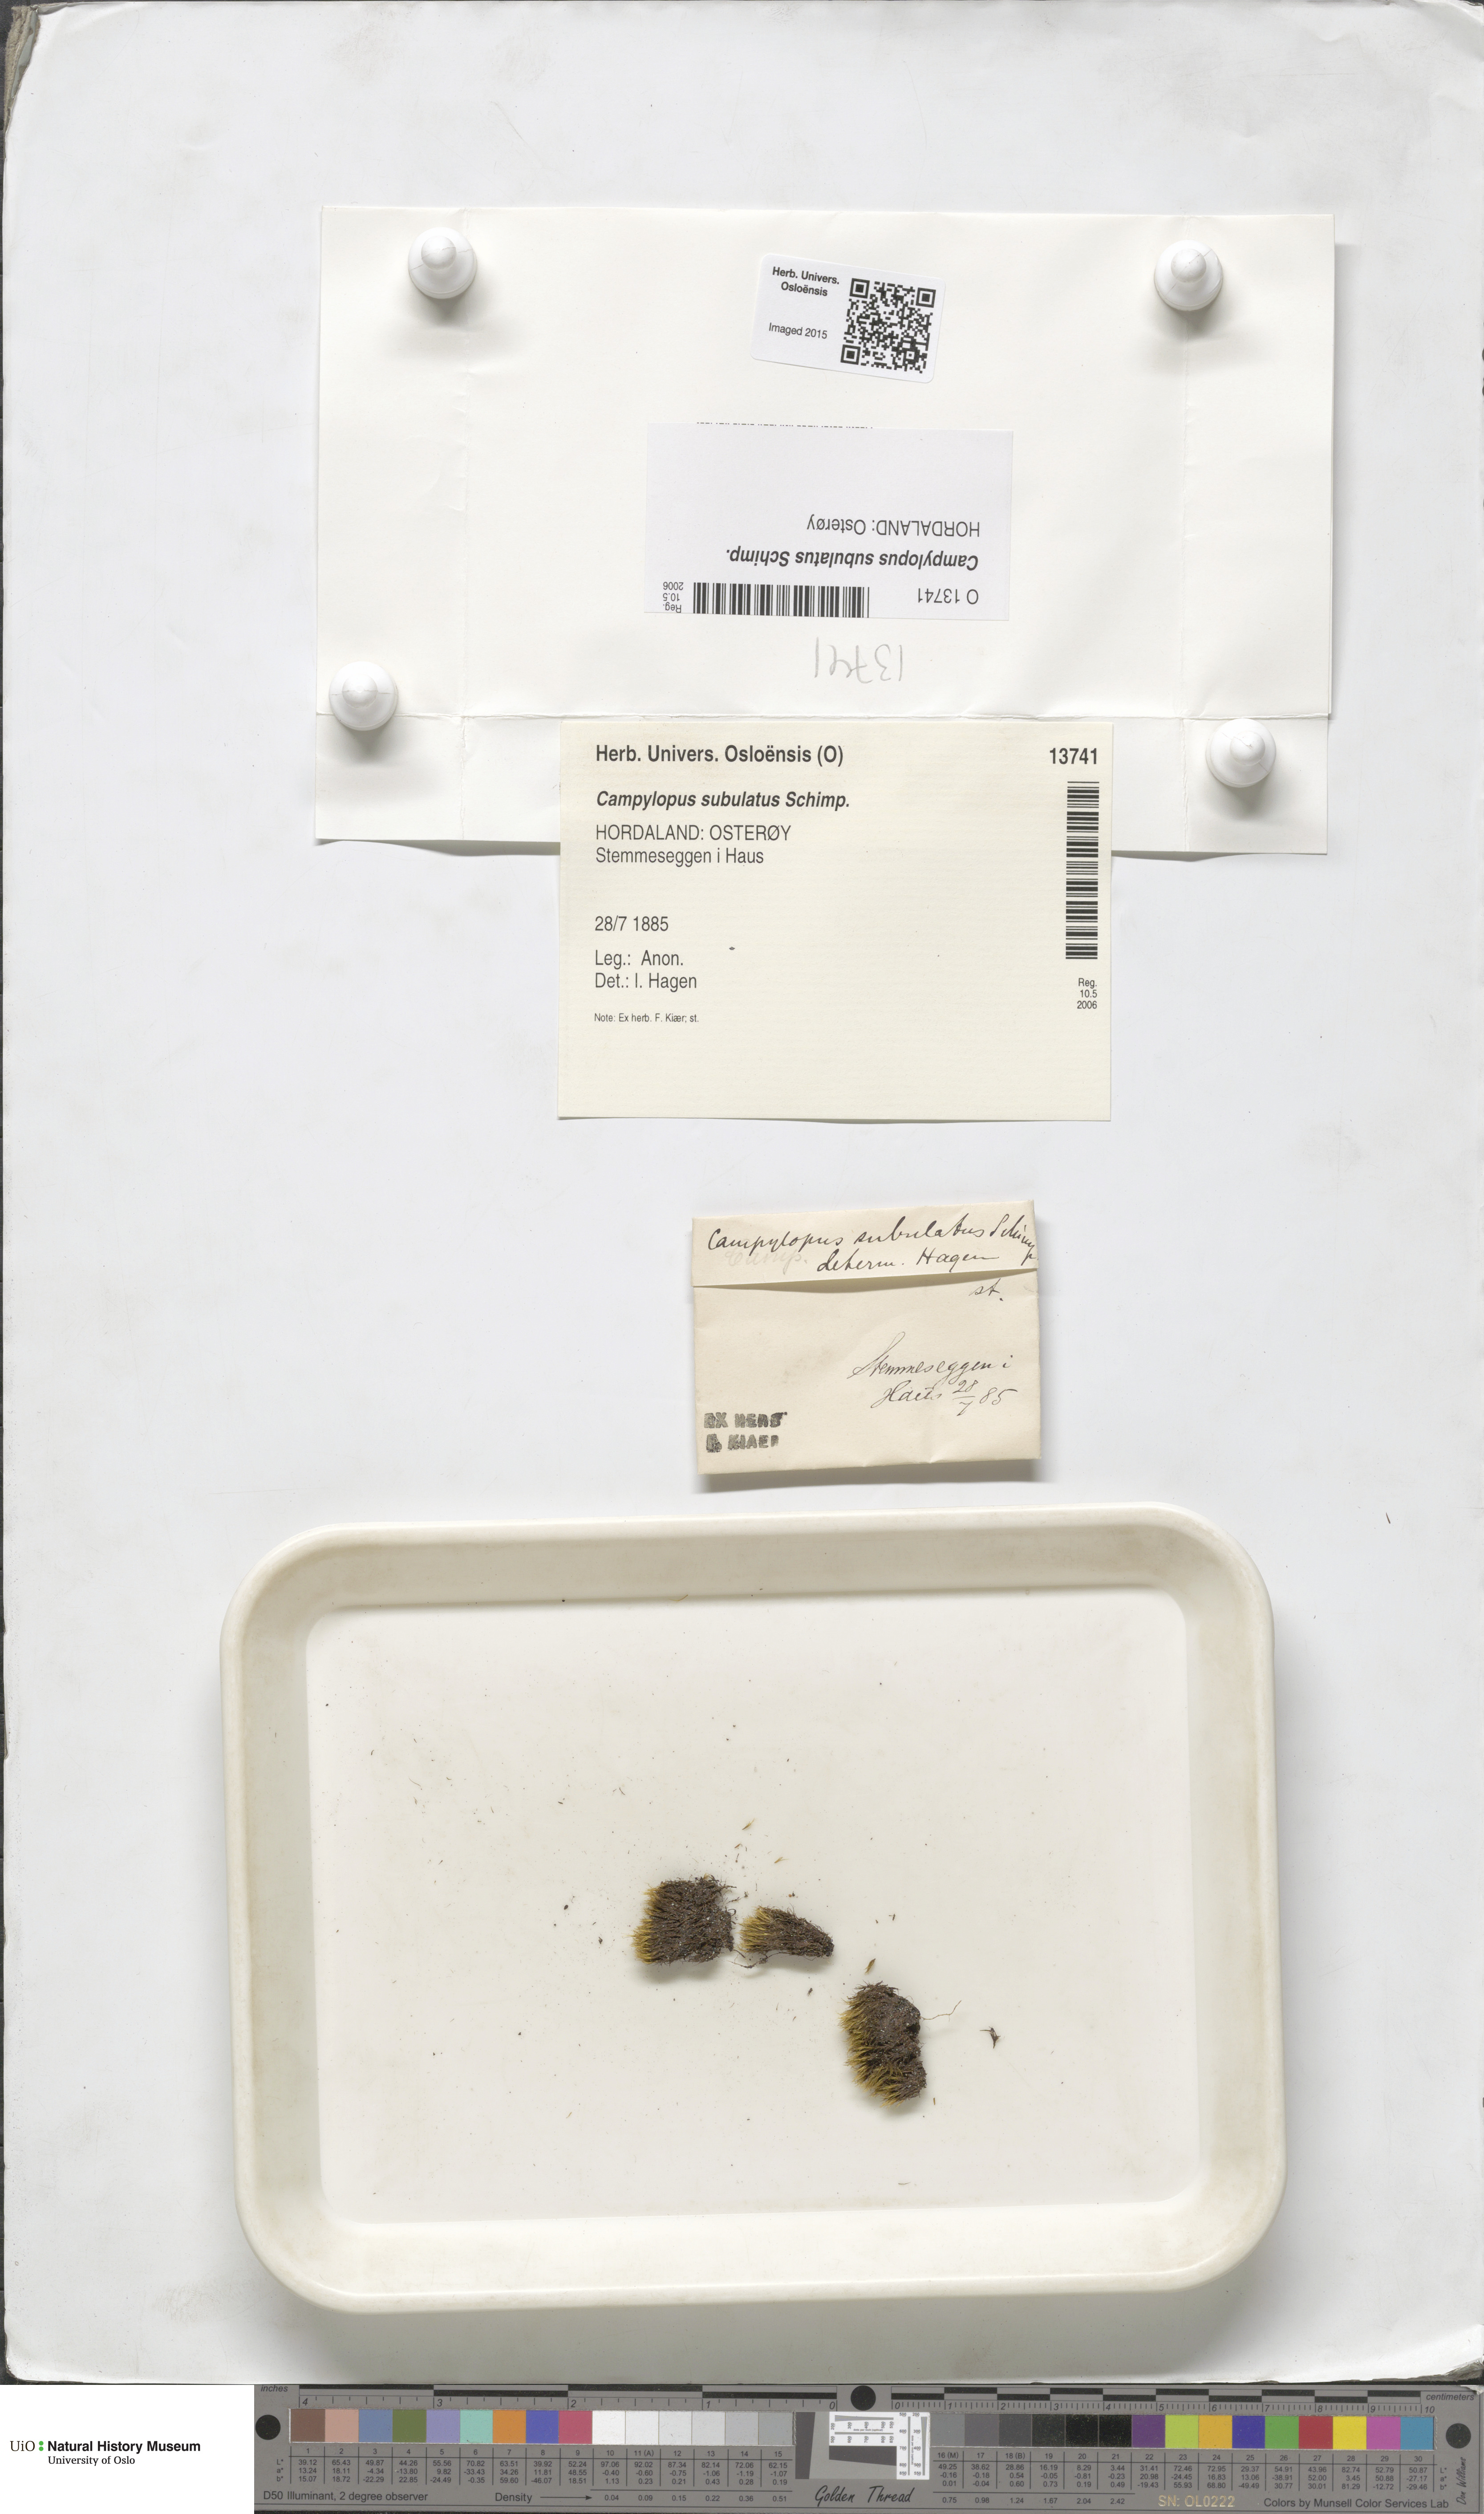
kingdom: Plantae
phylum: Bryophyta
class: Bryopsida
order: Dicranales
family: Leucobryaceae
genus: Campylopus
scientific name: Campylopus subulatus
